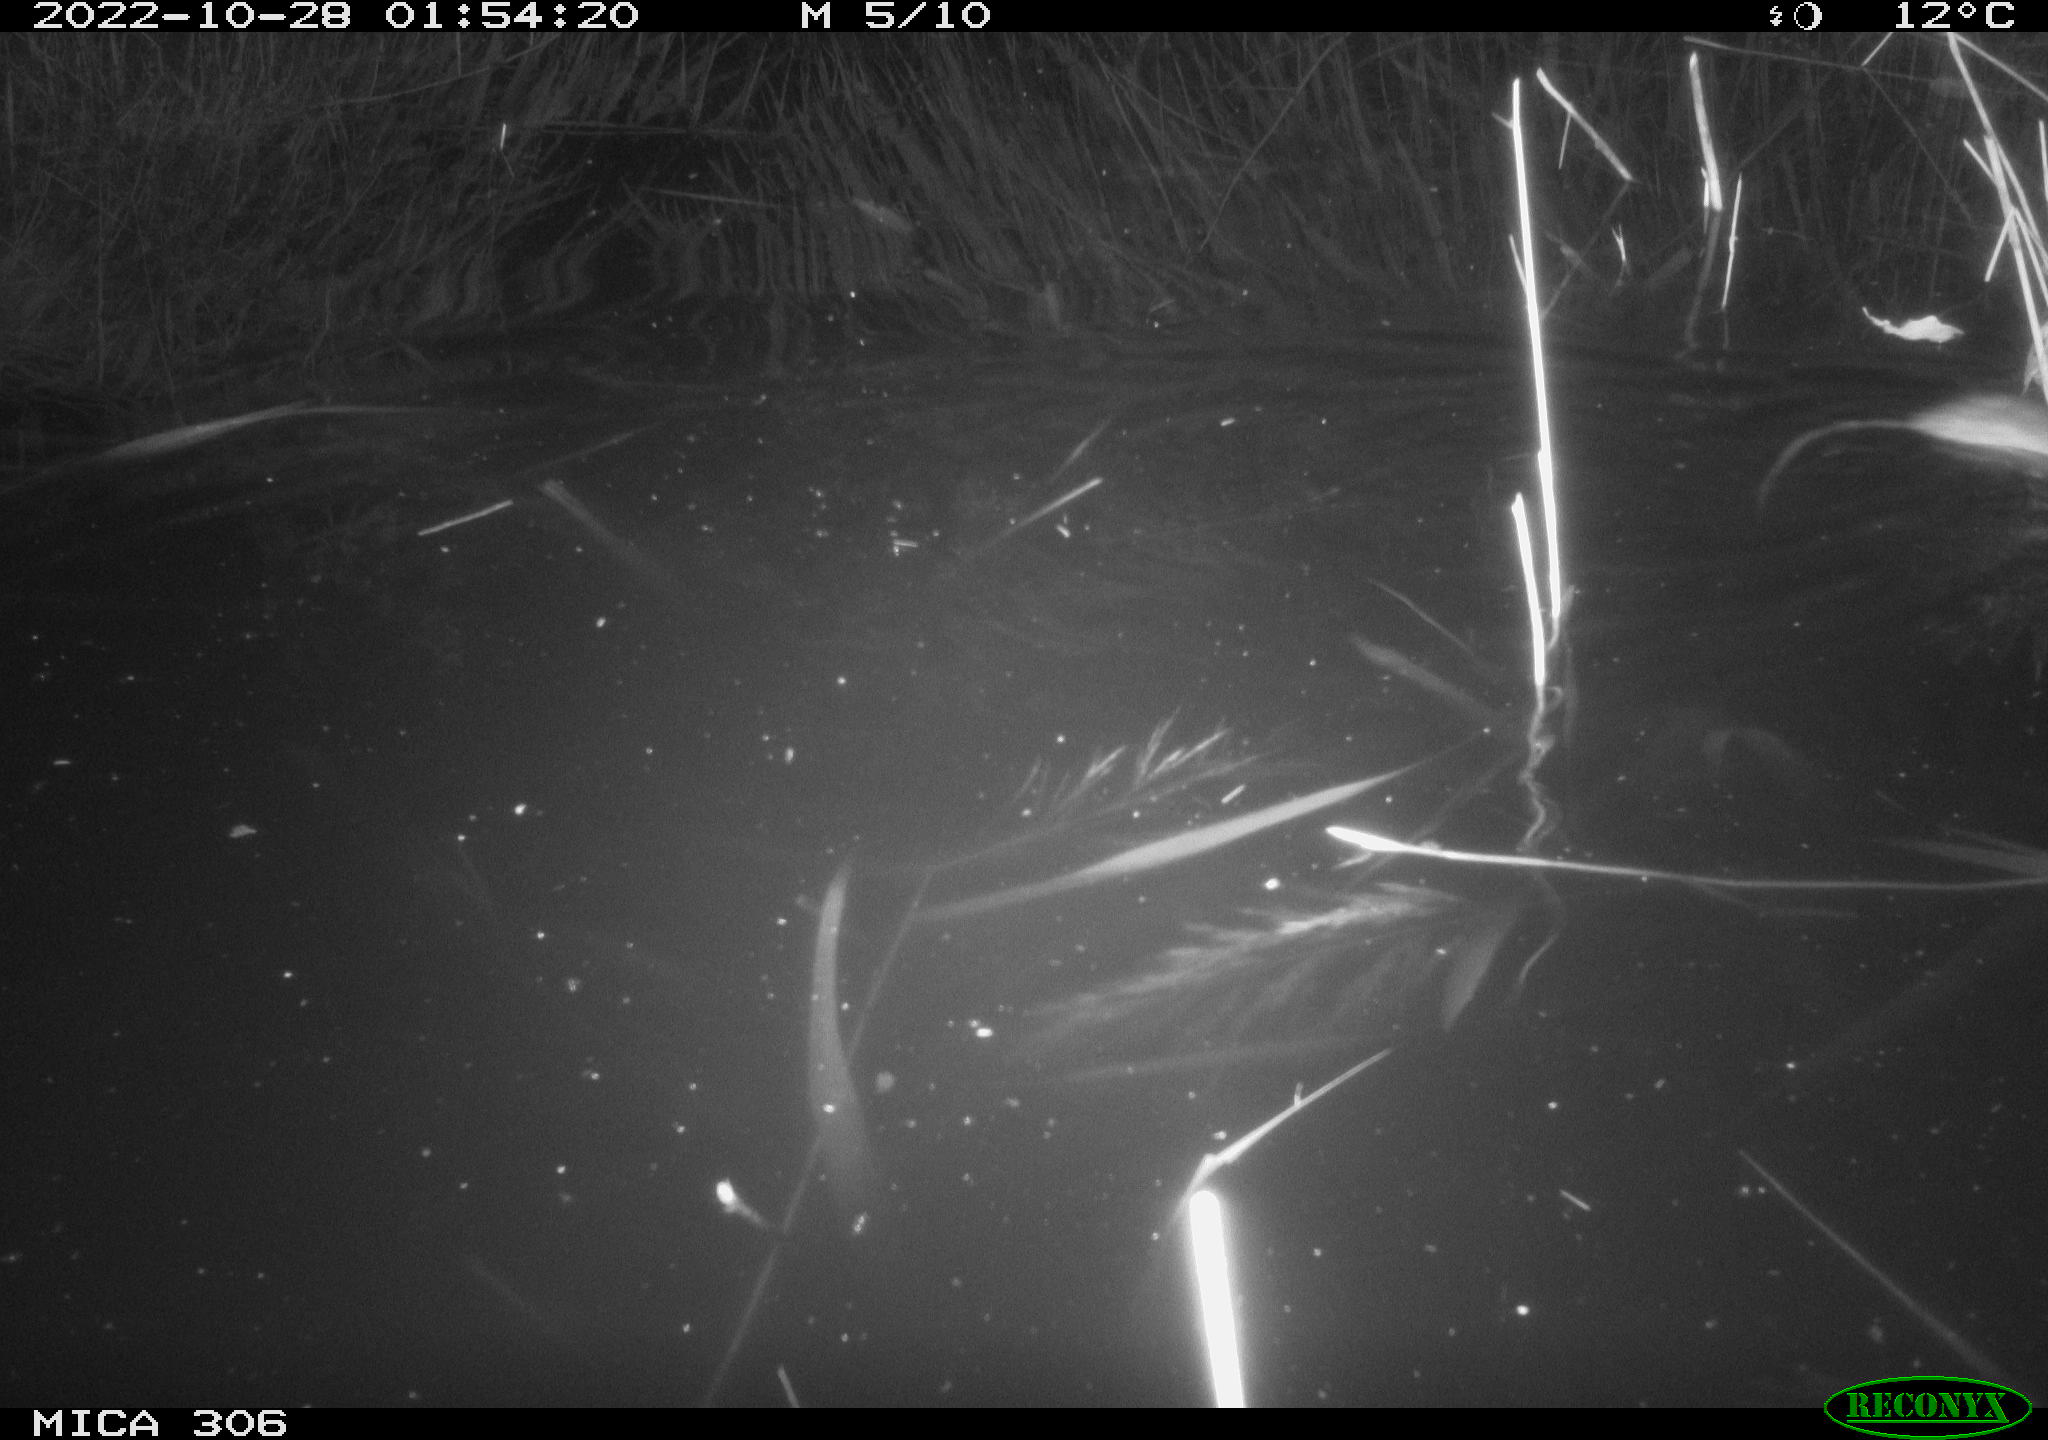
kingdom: Animalia
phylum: Chordata
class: Mammalia
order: Rodentia
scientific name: Rodentia
